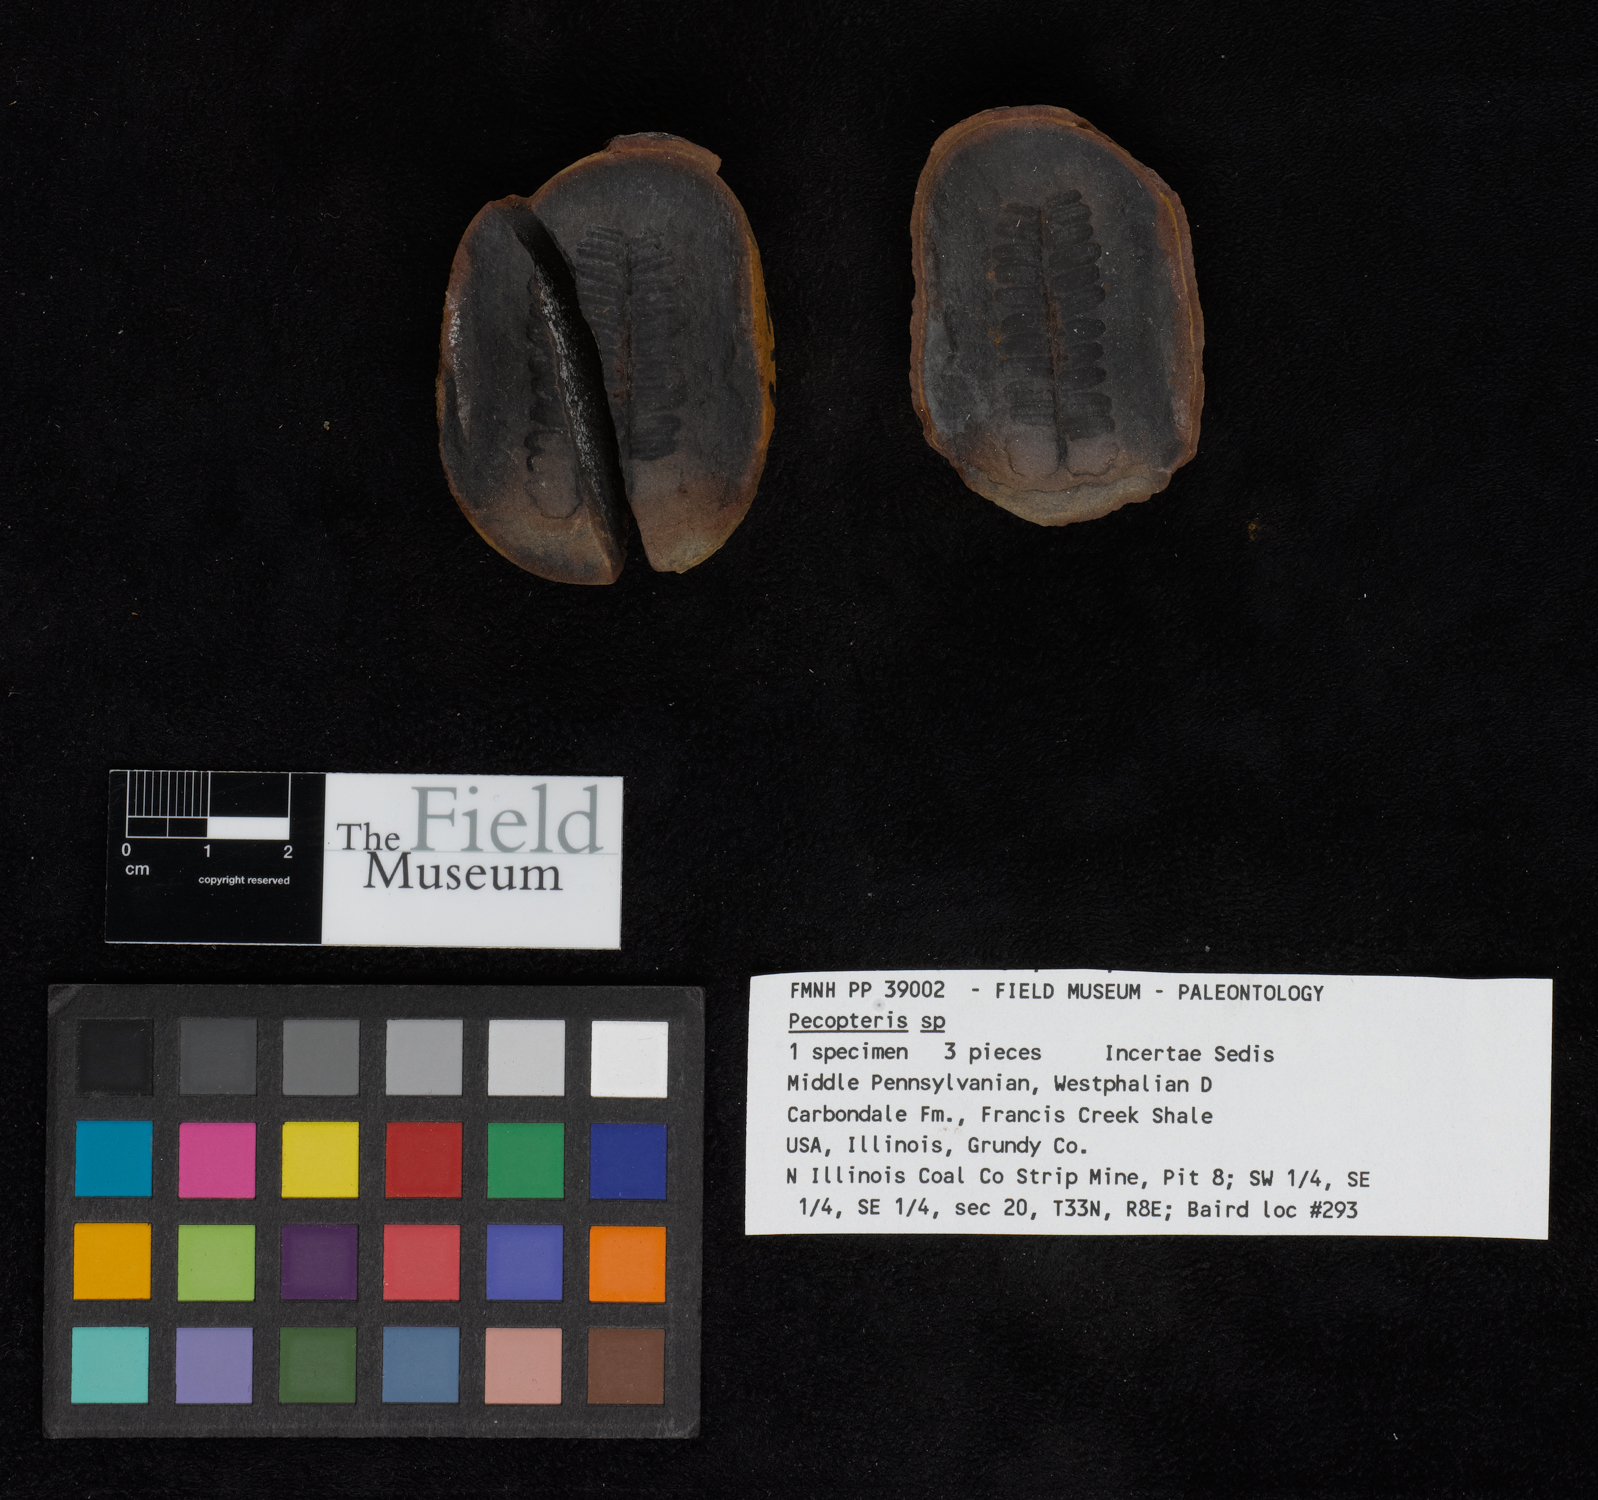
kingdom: Plantae
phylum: Tracheophyta
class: Polypodiopsida
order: Marattiales
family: Asterothecaceae
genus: Pecopteris
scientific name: Pecopteris
